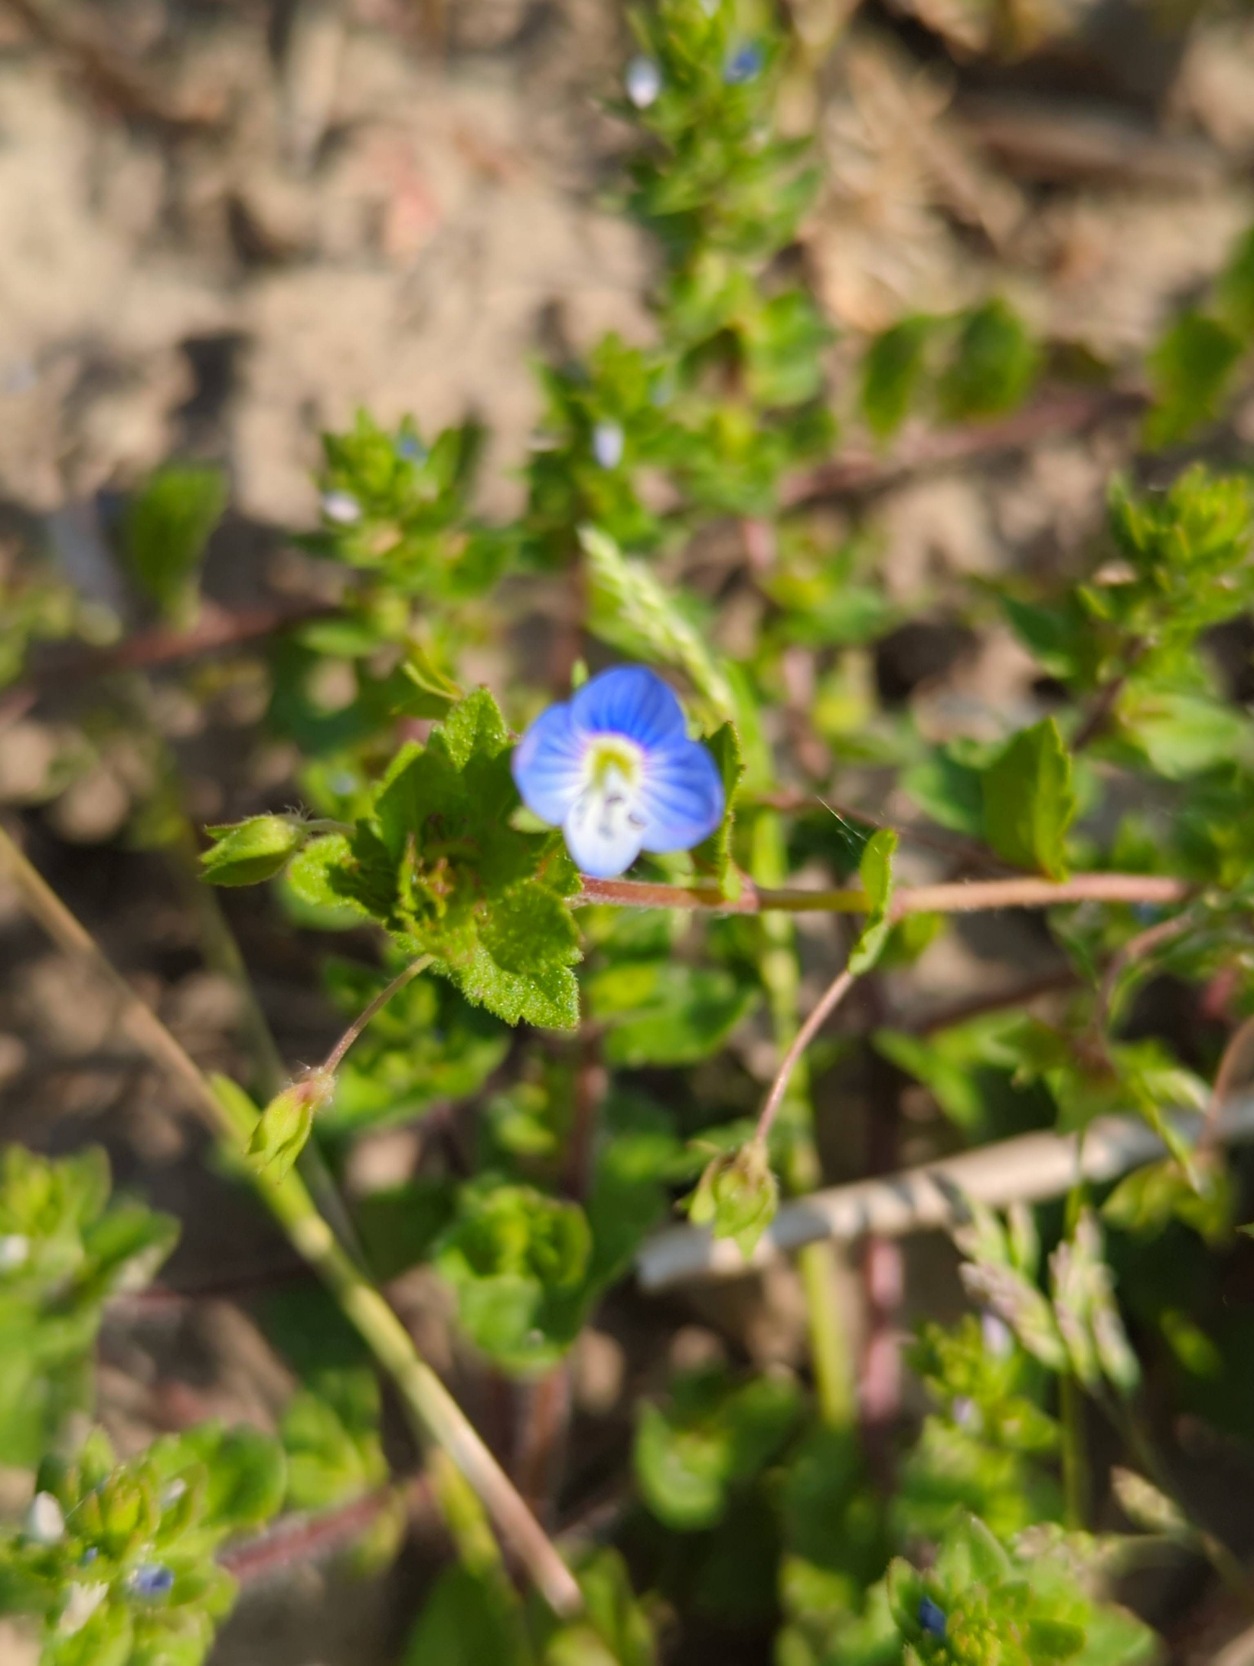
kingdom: Plantae
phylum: Tracheophyta
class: Magnoliopsida
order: Lamiales
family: Plantaginaceae
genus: Veronica
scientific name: Veronica persica
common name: Storkronet ærenpris
